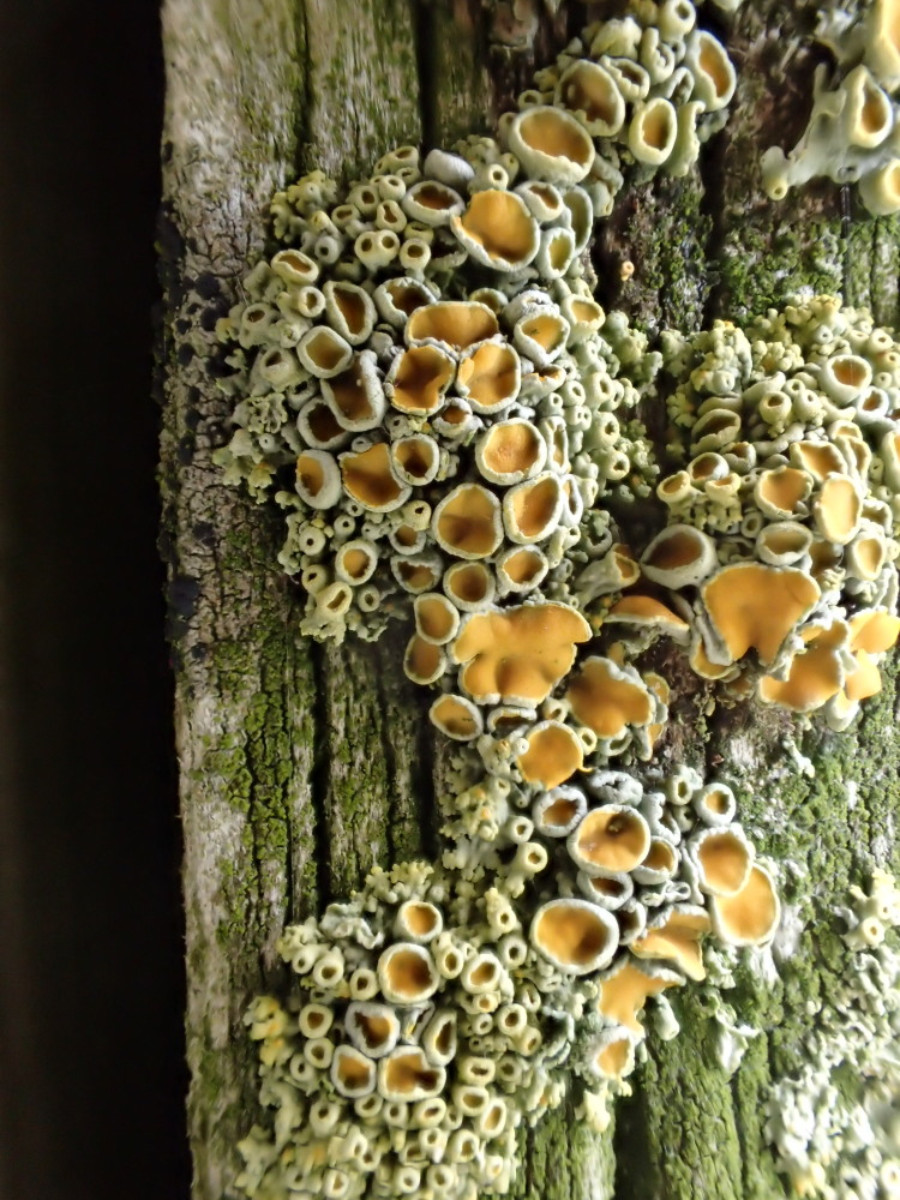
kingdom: Fungi
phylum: Ascomycota
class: Lecanoromycetes
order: Teloschistales
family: Teloschistaceae
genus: Polycauliona
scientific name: Polycauliona polycarpa
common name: mangefrugtet orangelav
